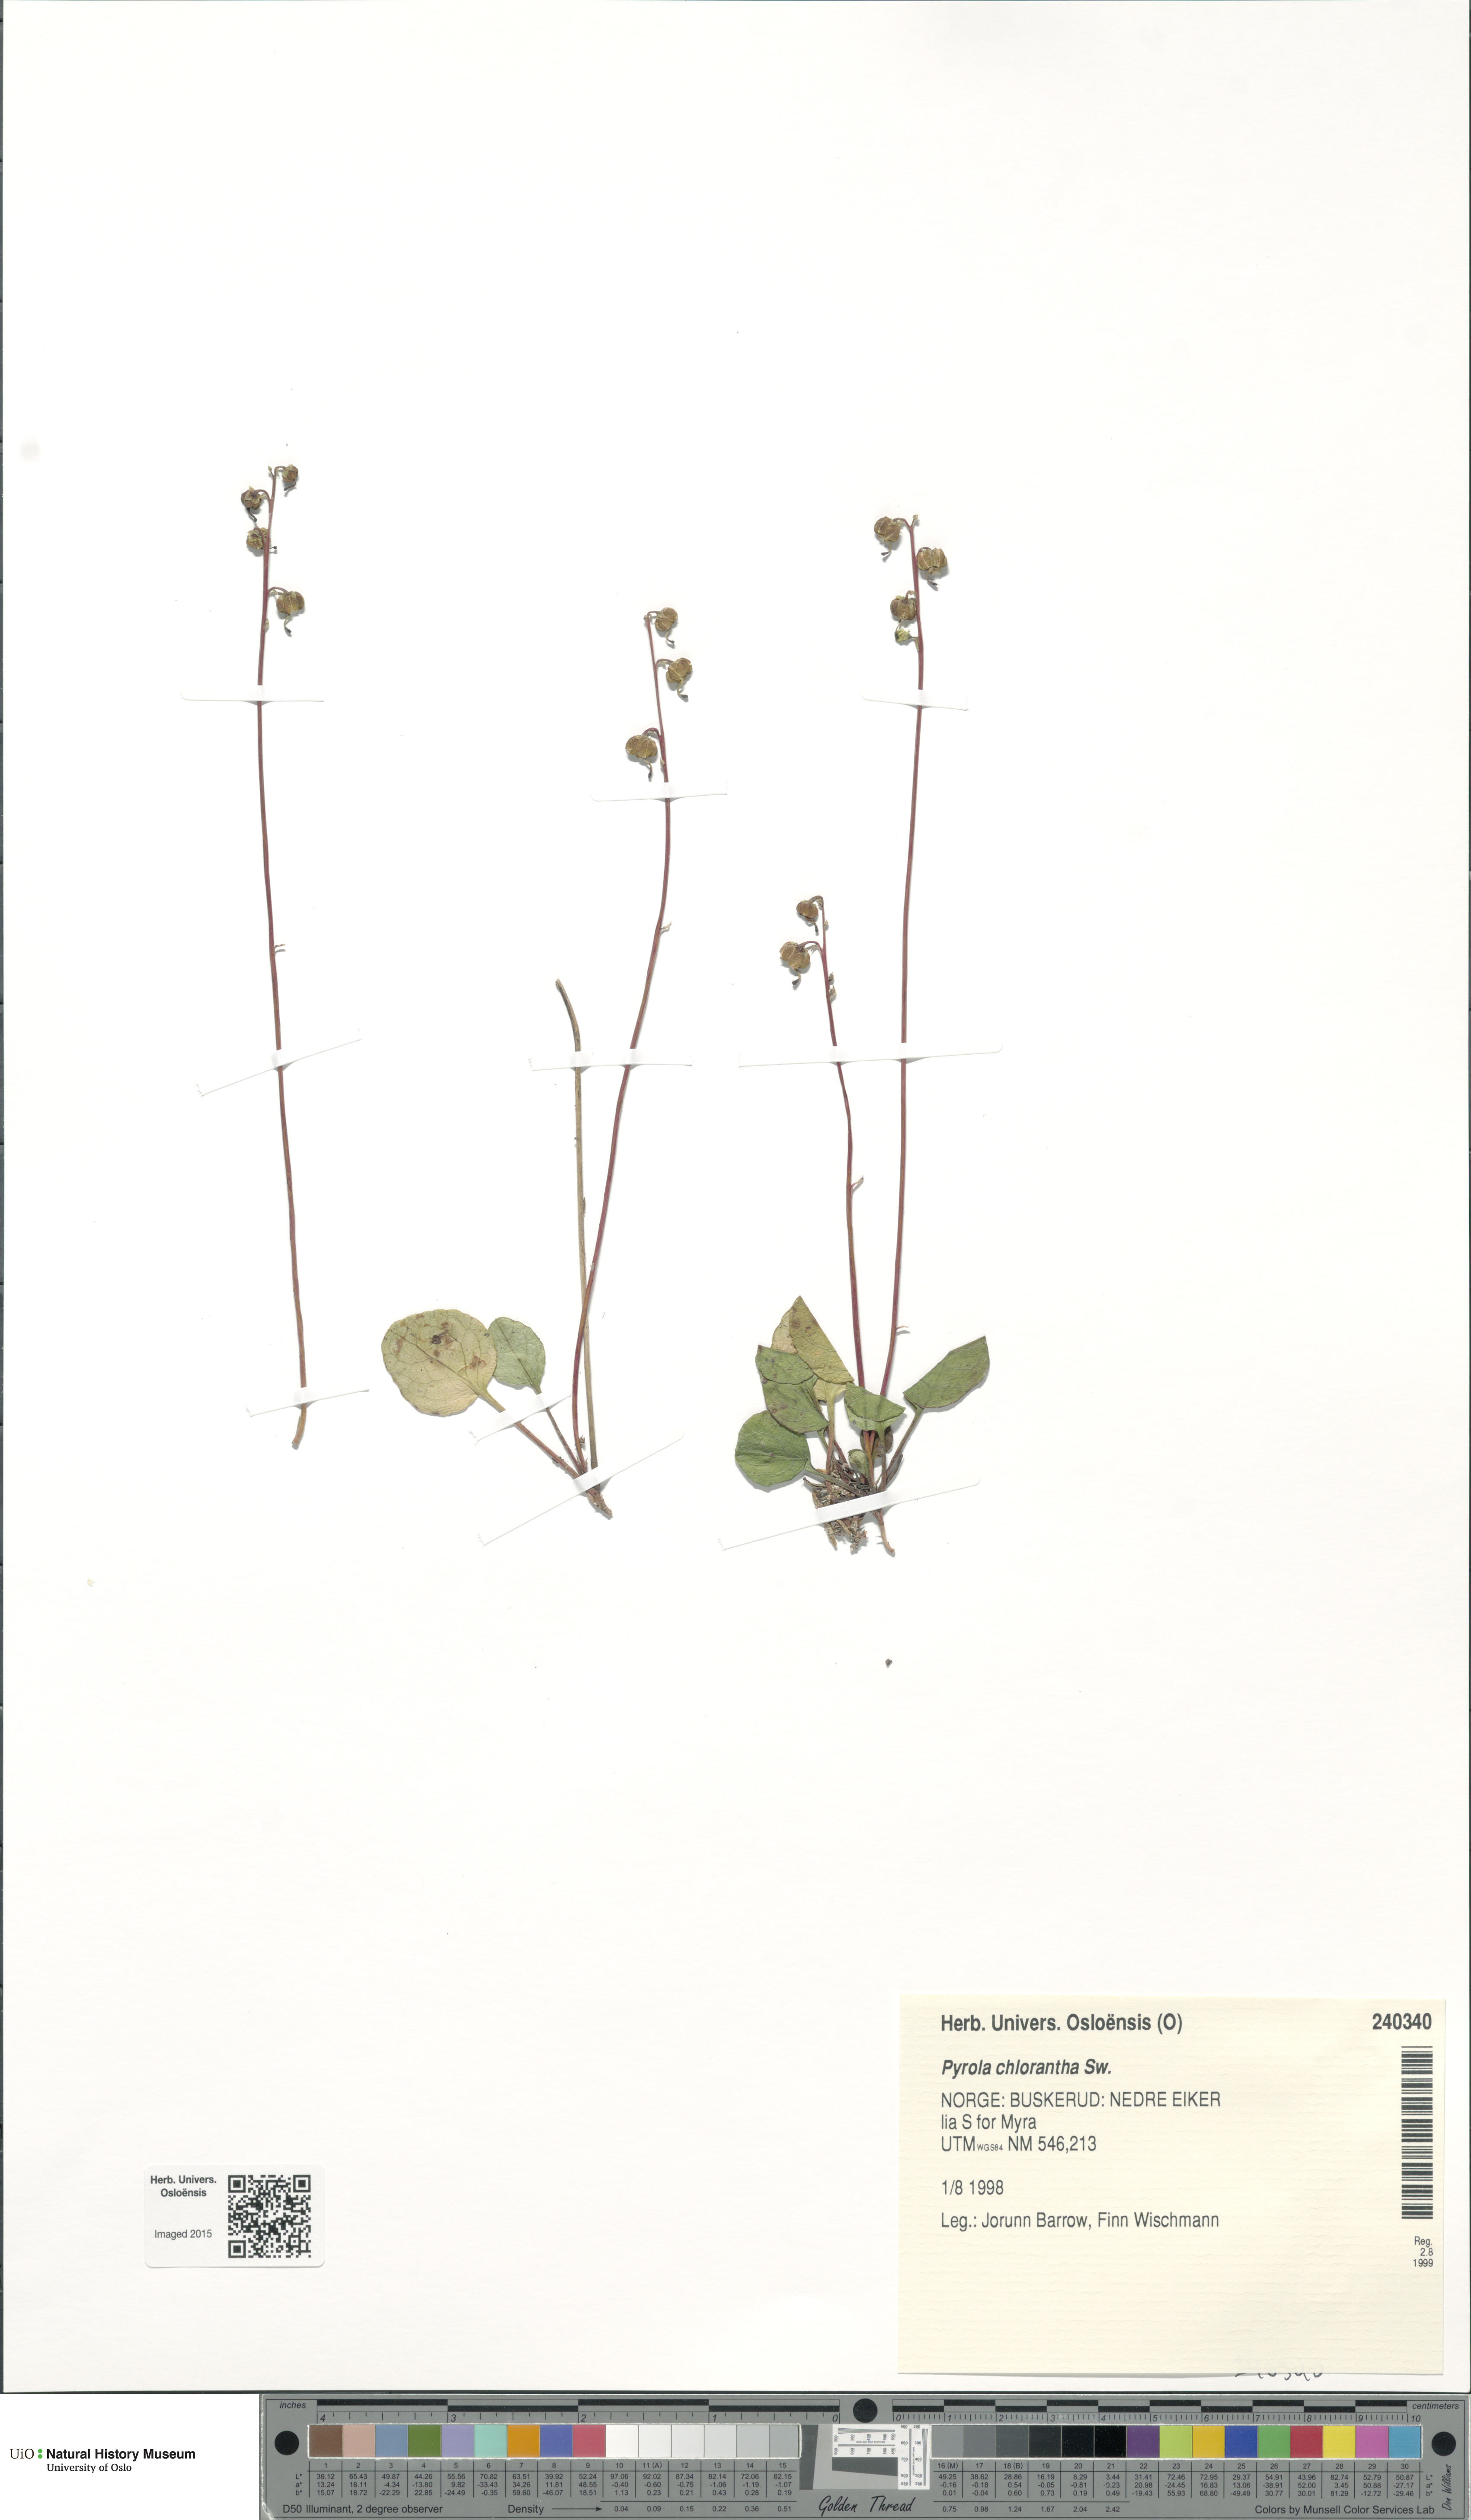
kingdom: Plantae
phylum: Tracheophyta
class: Magnoliopsida
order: Ericales
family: Ericaceae
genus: Pyrola
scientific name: Pyrola chlorantha
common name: Green wintergreen
